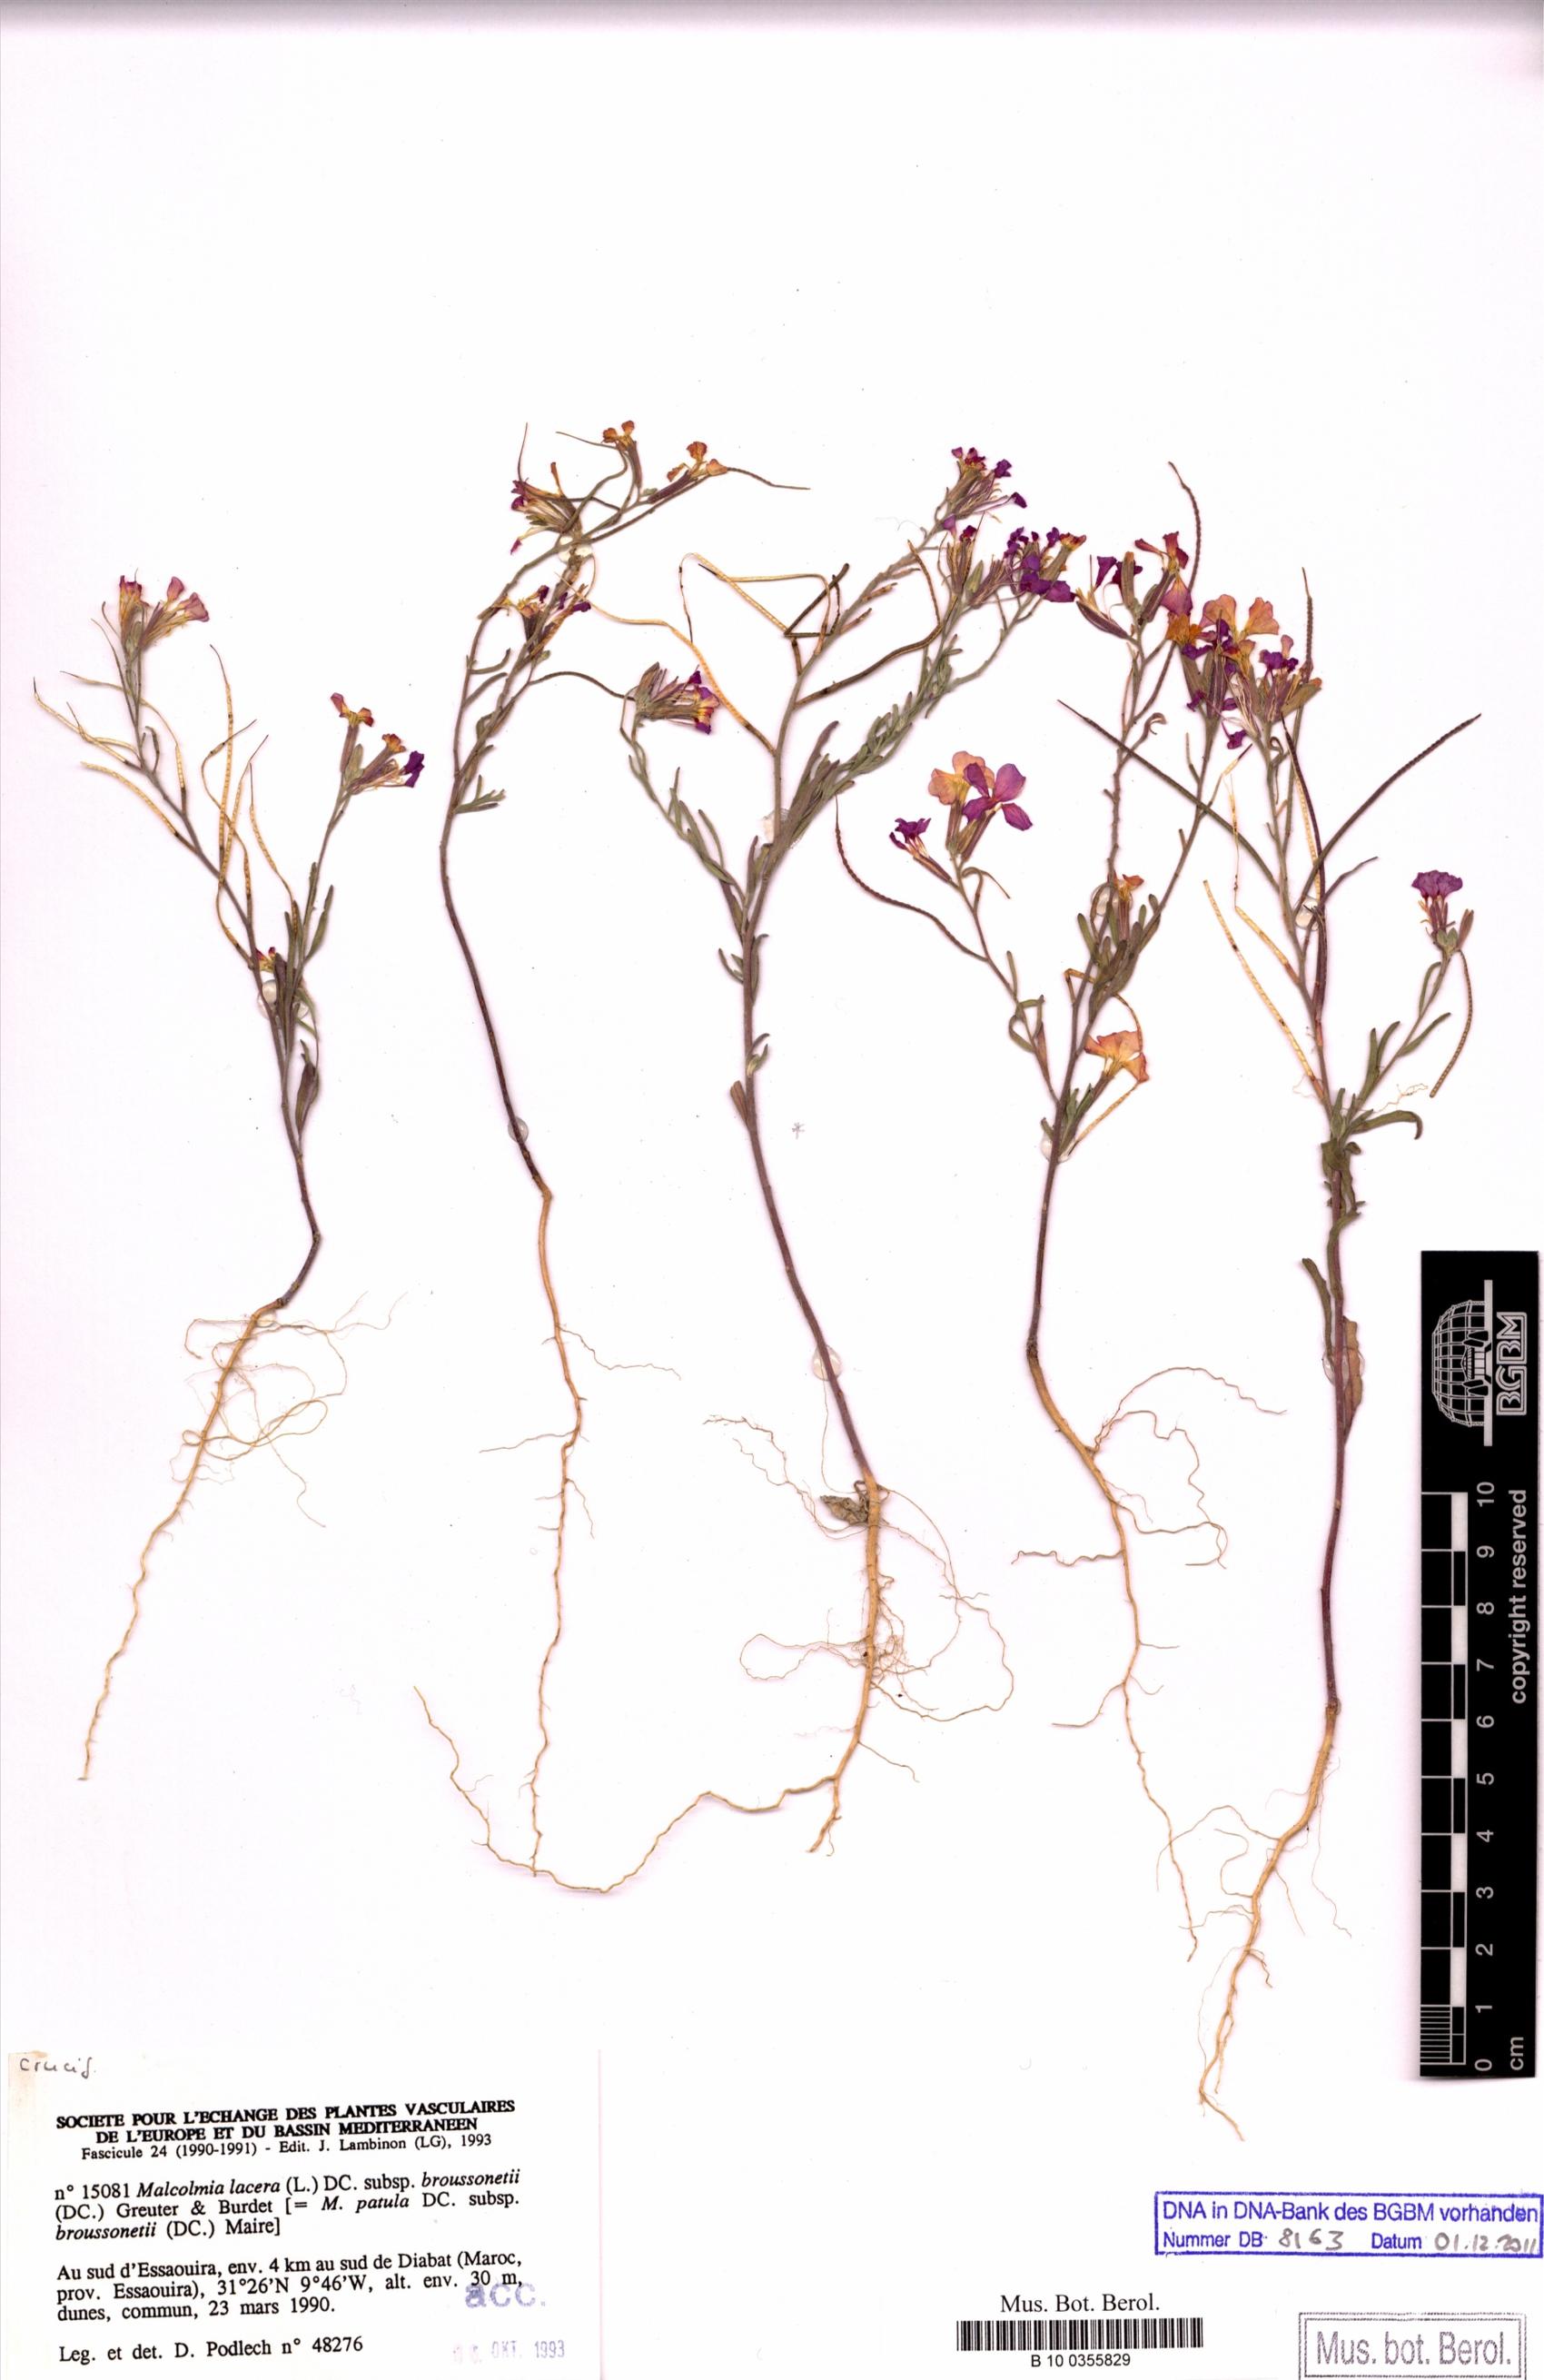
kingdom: Plantae
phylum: Tracheophyta
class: Magnoliopsida
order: Brassicales
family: Brassicaceae
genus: Marcuskochia
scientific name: Marcuskochia triloba
